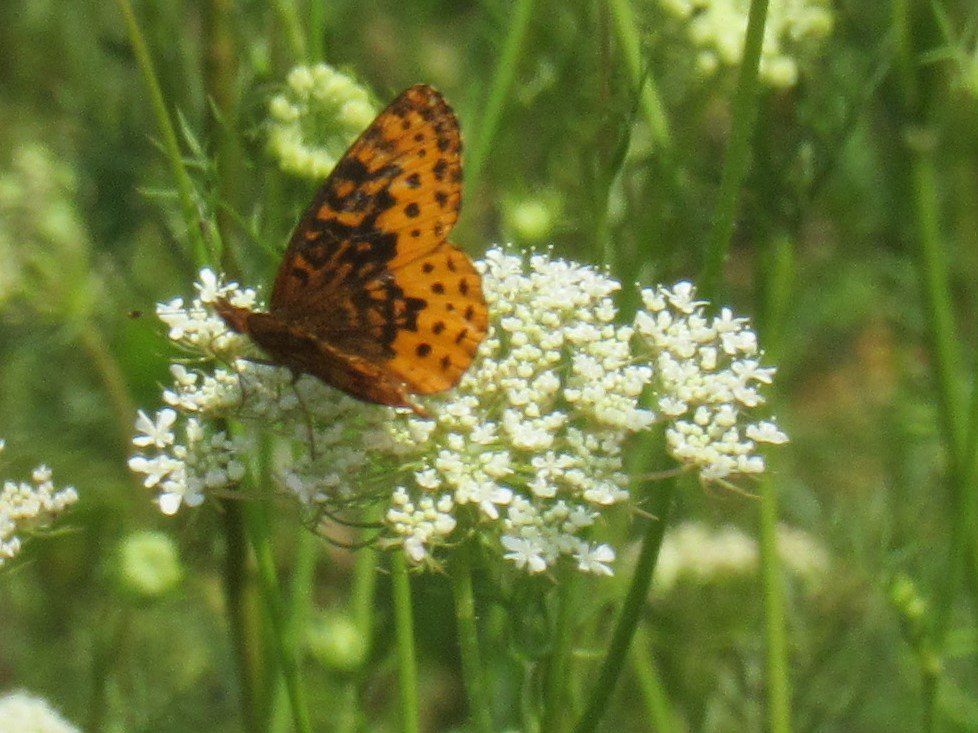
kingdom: Animalia
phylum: Arthropoda
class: Insecta
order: Lepidoptera
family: Nymphalidae
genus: Clossiana
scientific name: Clossiana toddi
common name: Meadow Fritillary
